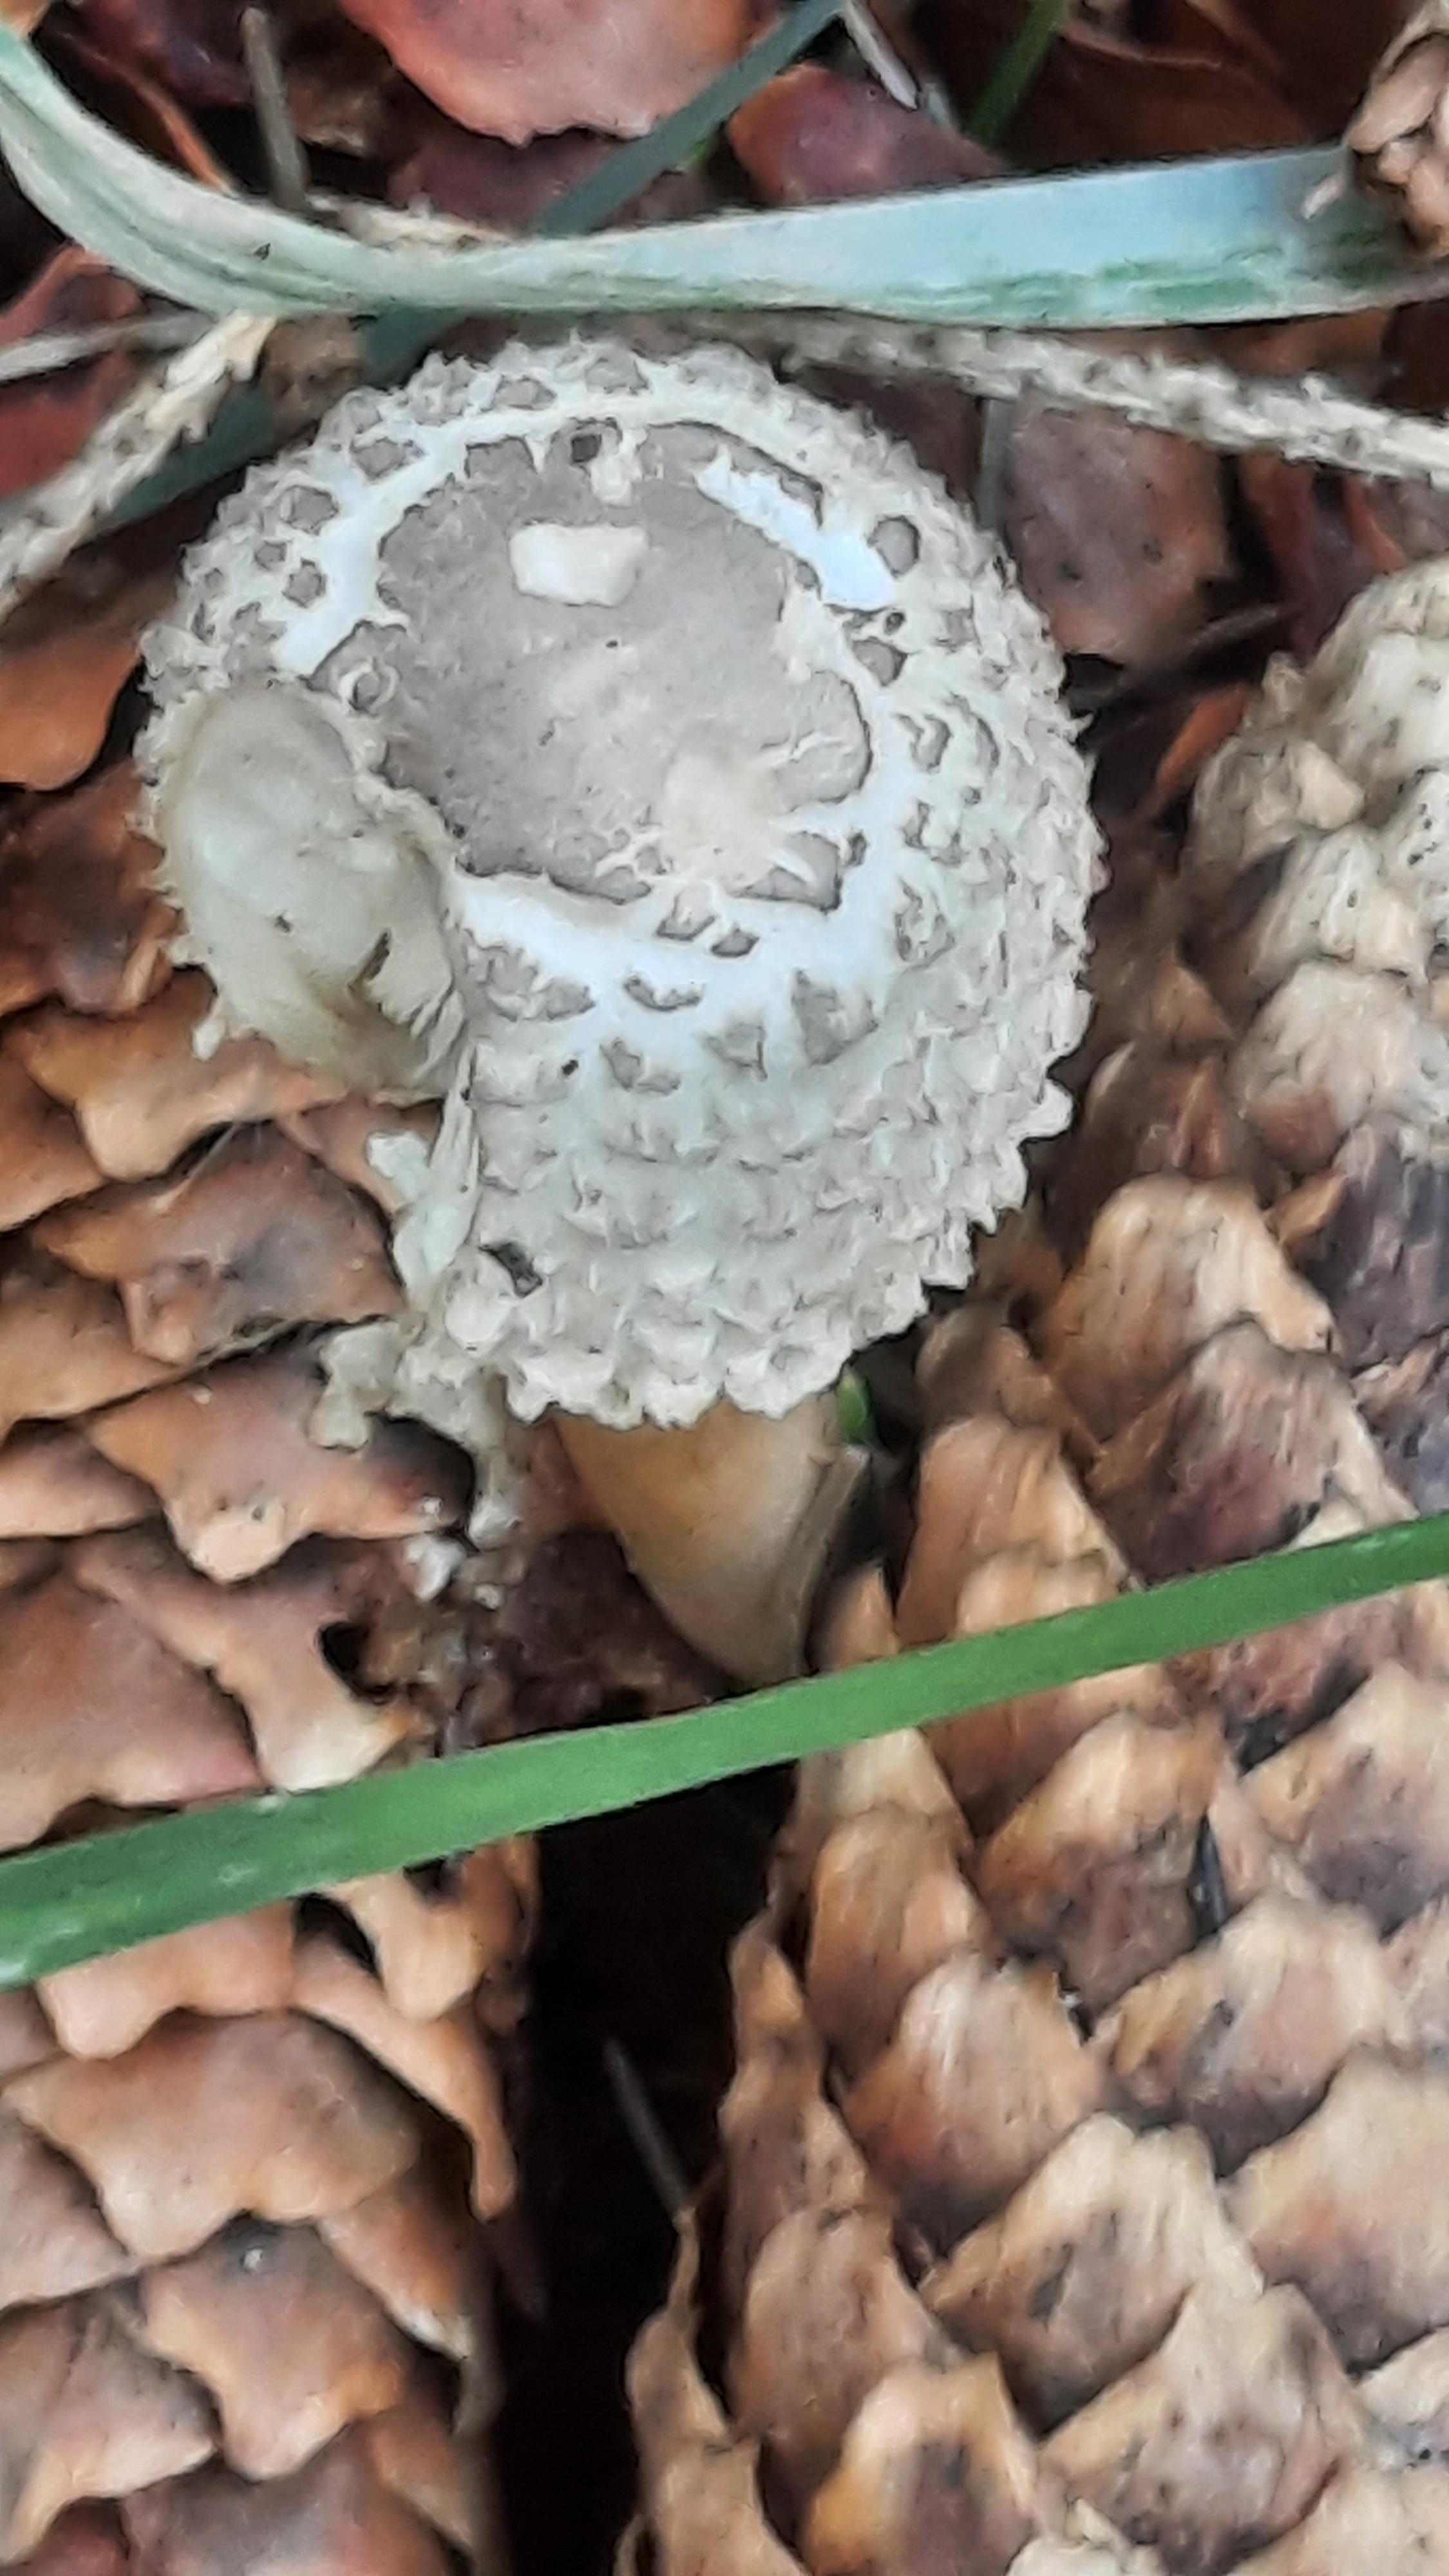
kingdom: Fungi
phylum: Basidiomycota
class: Agaricomycetes
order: Agaricales
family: Agaricaceae
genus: Leucoagaricus
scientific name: Leucoagaricus nympharum
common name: gran-silkehat
